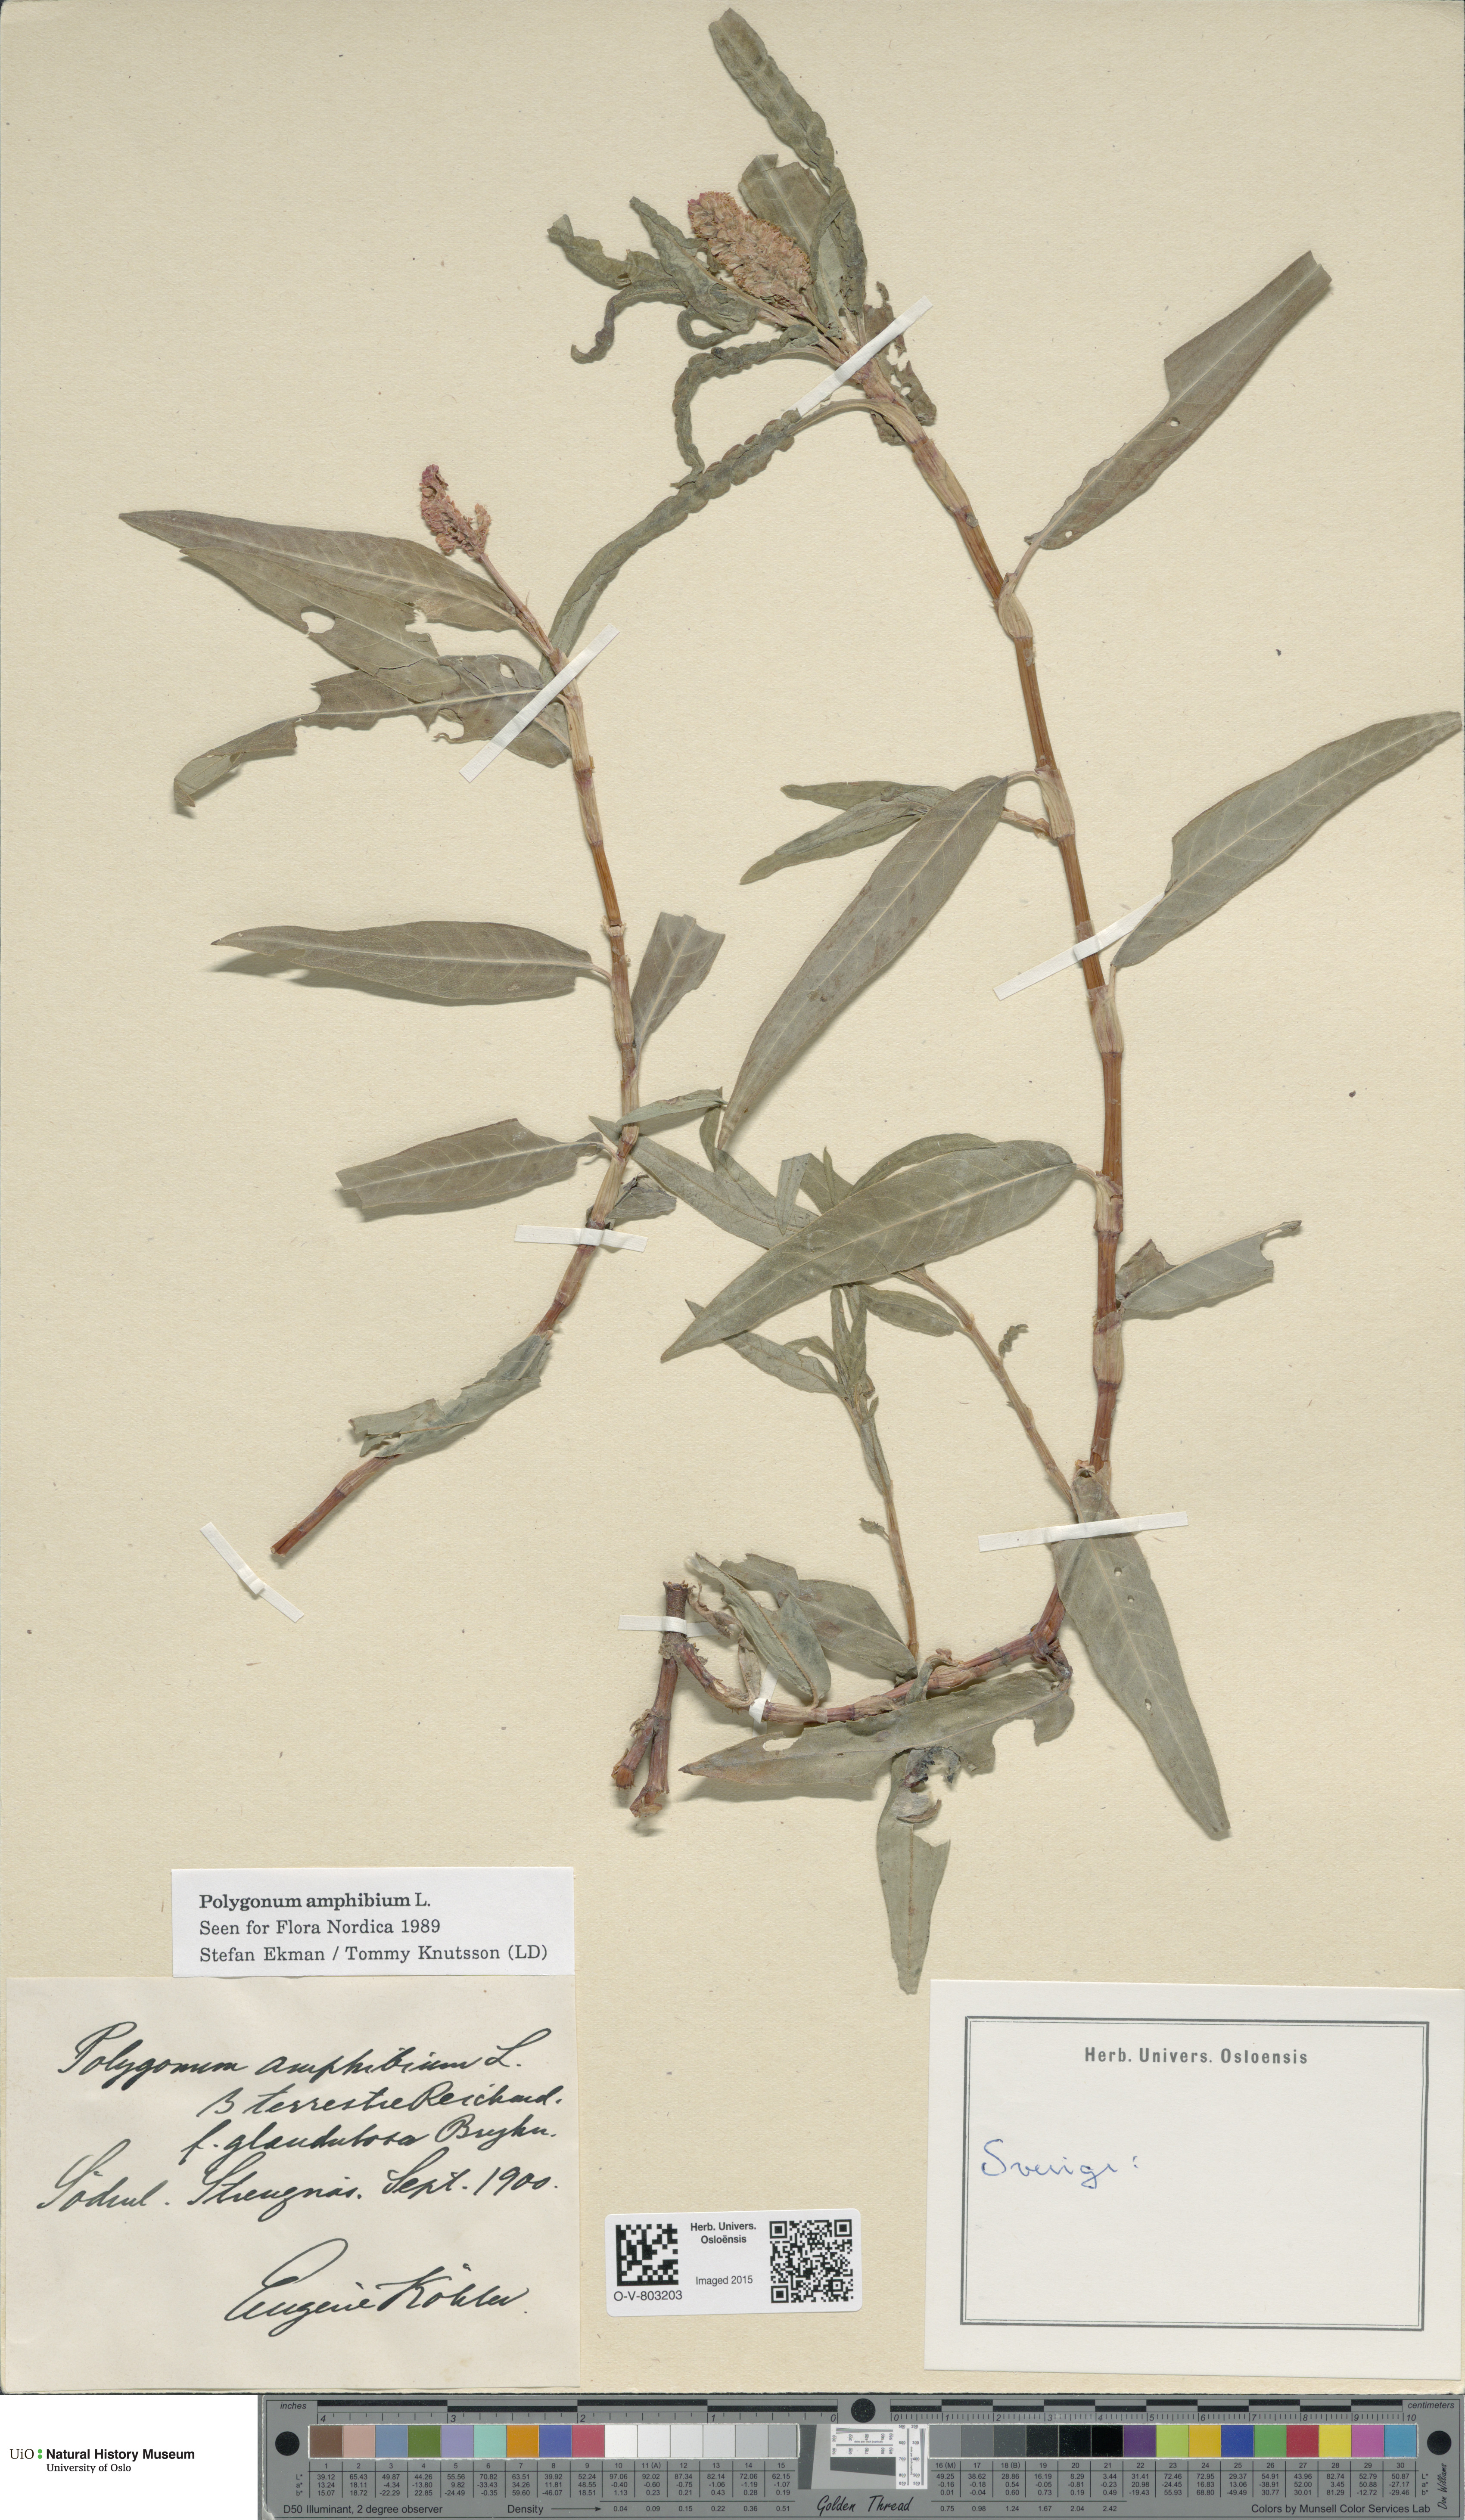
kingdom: Plantae
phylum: Tracheophyta
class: Magnoliopsida
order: Caryophyllales
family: Polygonaceae
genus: Persicaria
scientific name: Persicaria amphibia
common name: Amphibious bistort
